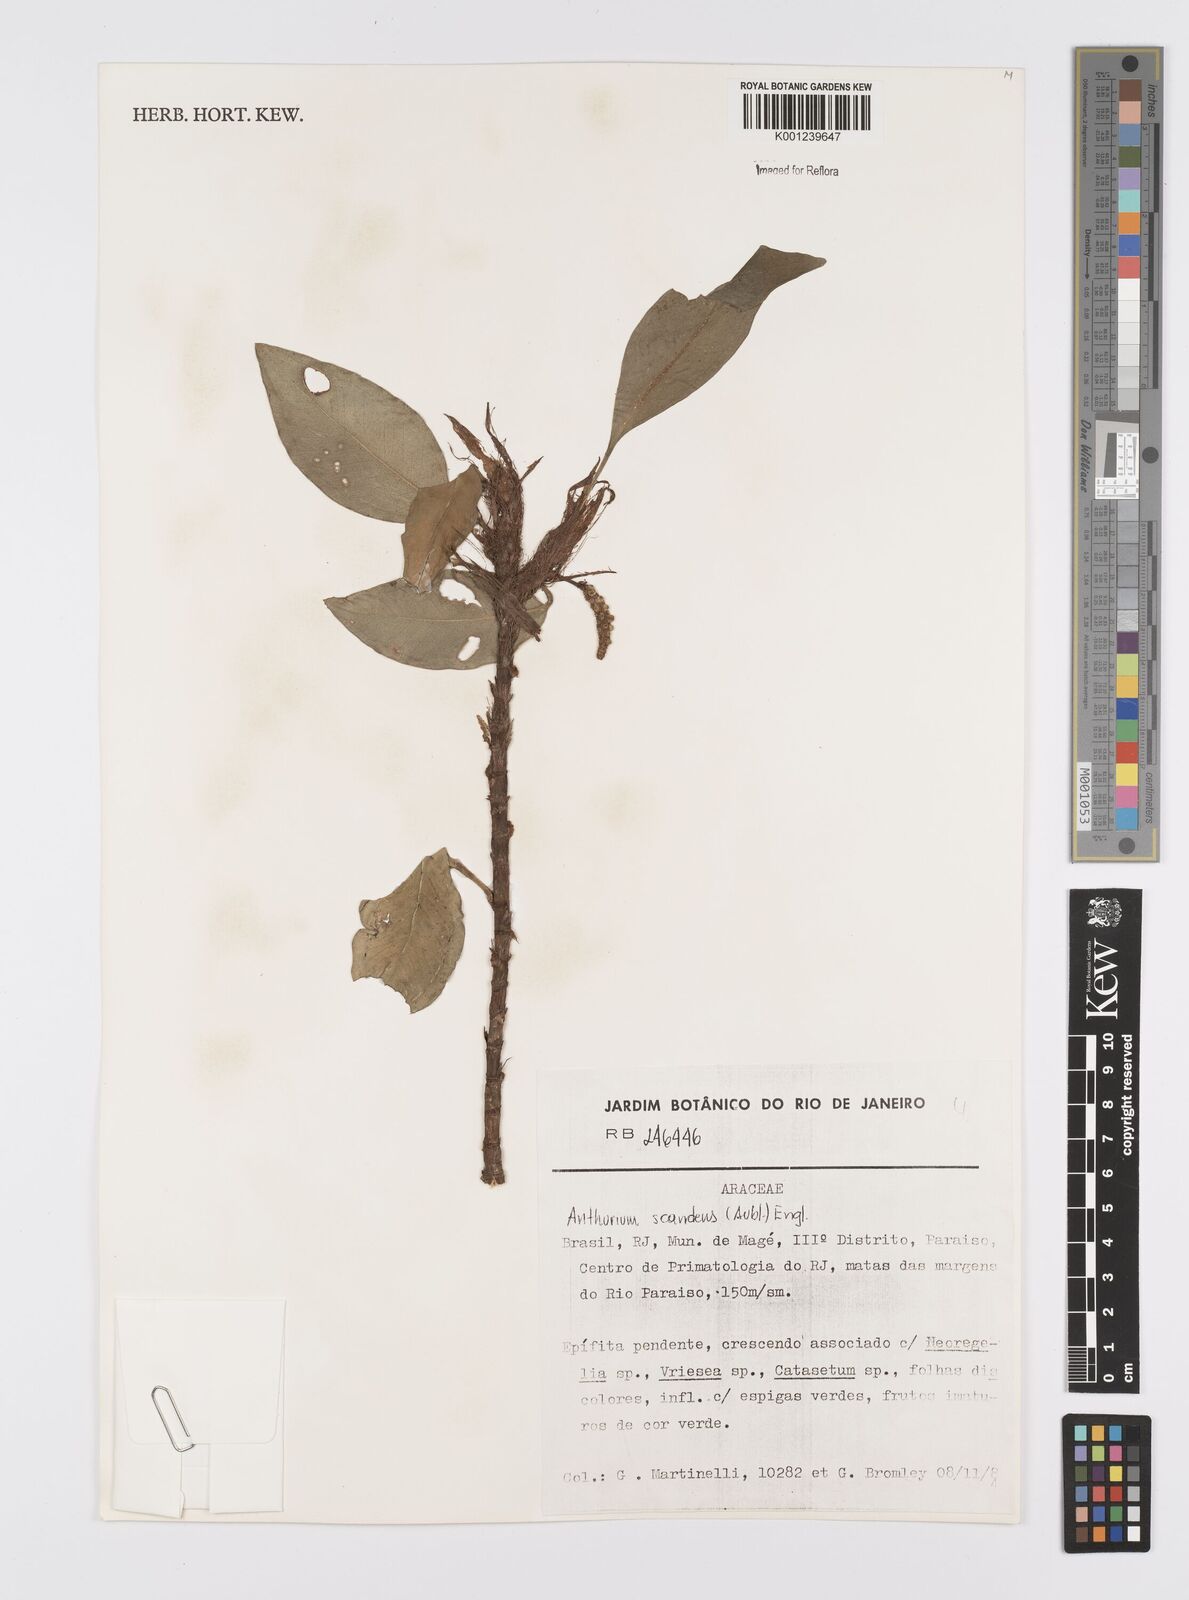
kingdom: Plantae
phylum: Tracheophyta
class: Liliopsida
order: Alismatales
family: Araceae
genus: Anthurium
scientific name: Anthurium scandens
